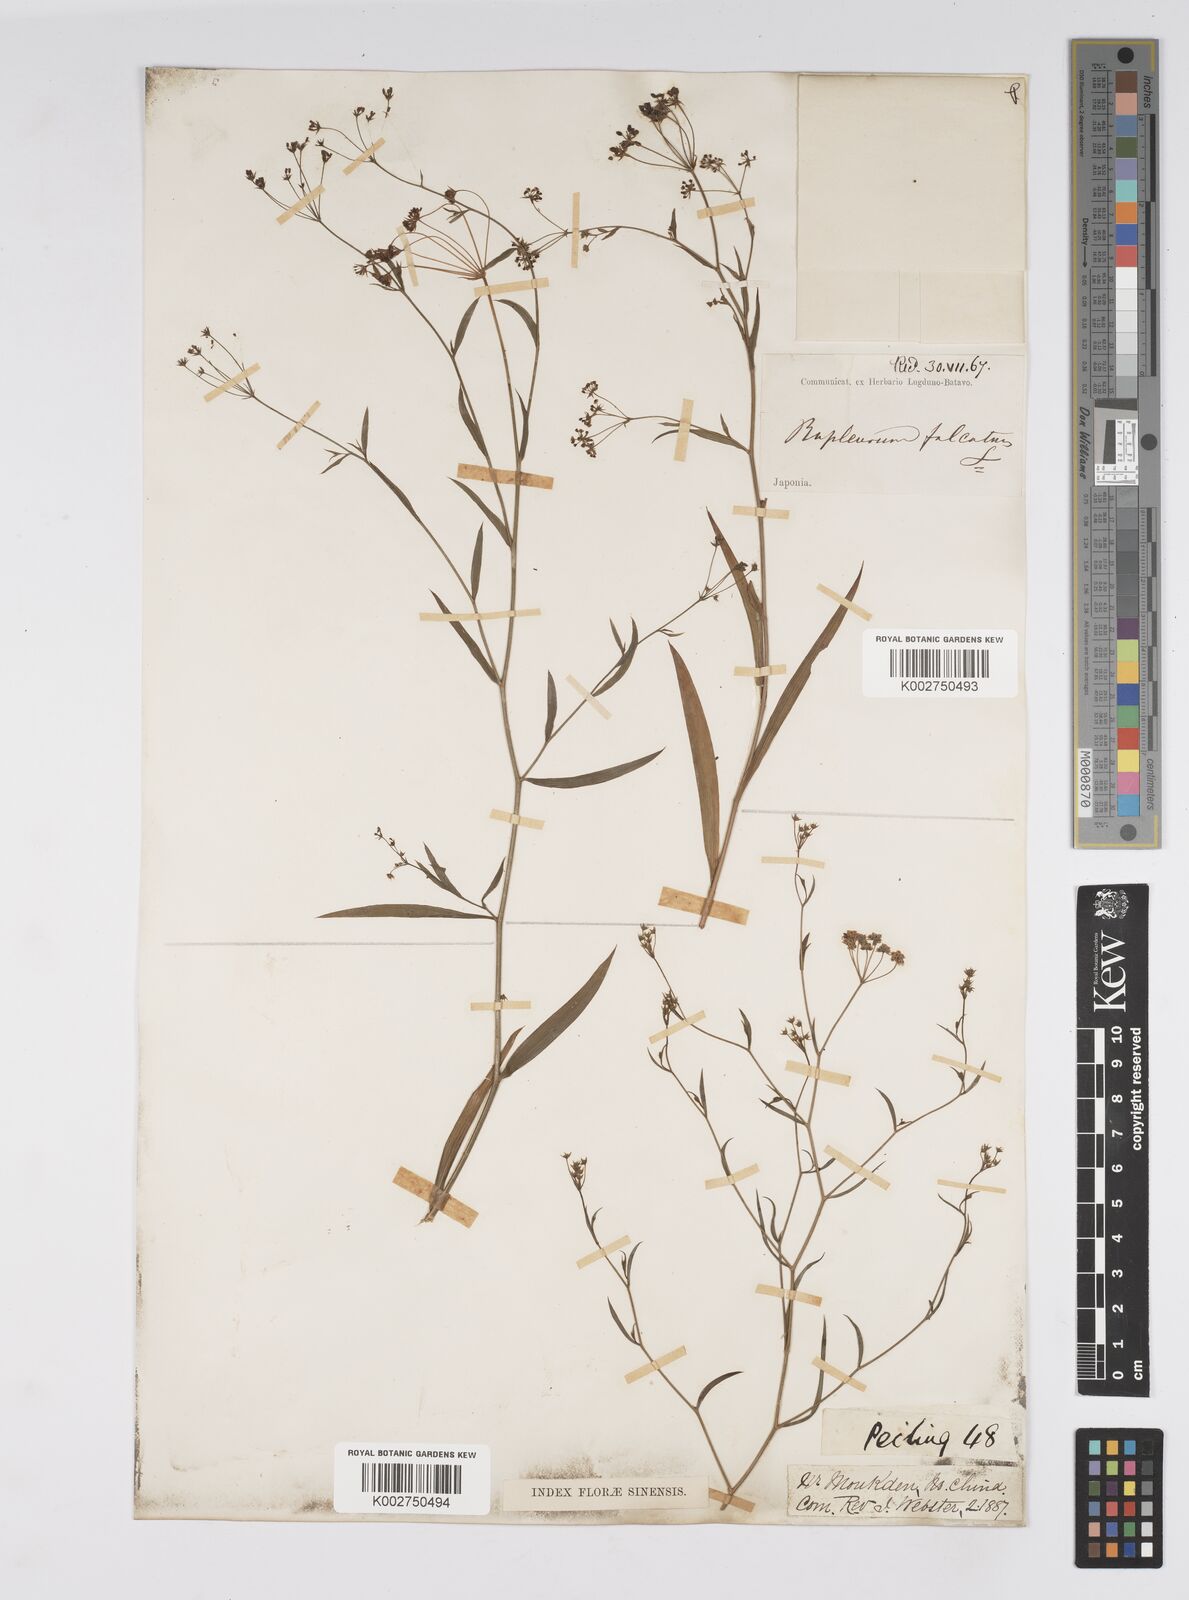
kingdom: Plantae
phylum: Tracheophyta
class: Magnoliopsida
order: Apiales
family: Apiaceae
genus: Bupleurum
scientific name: Bupleurum krylovianum
